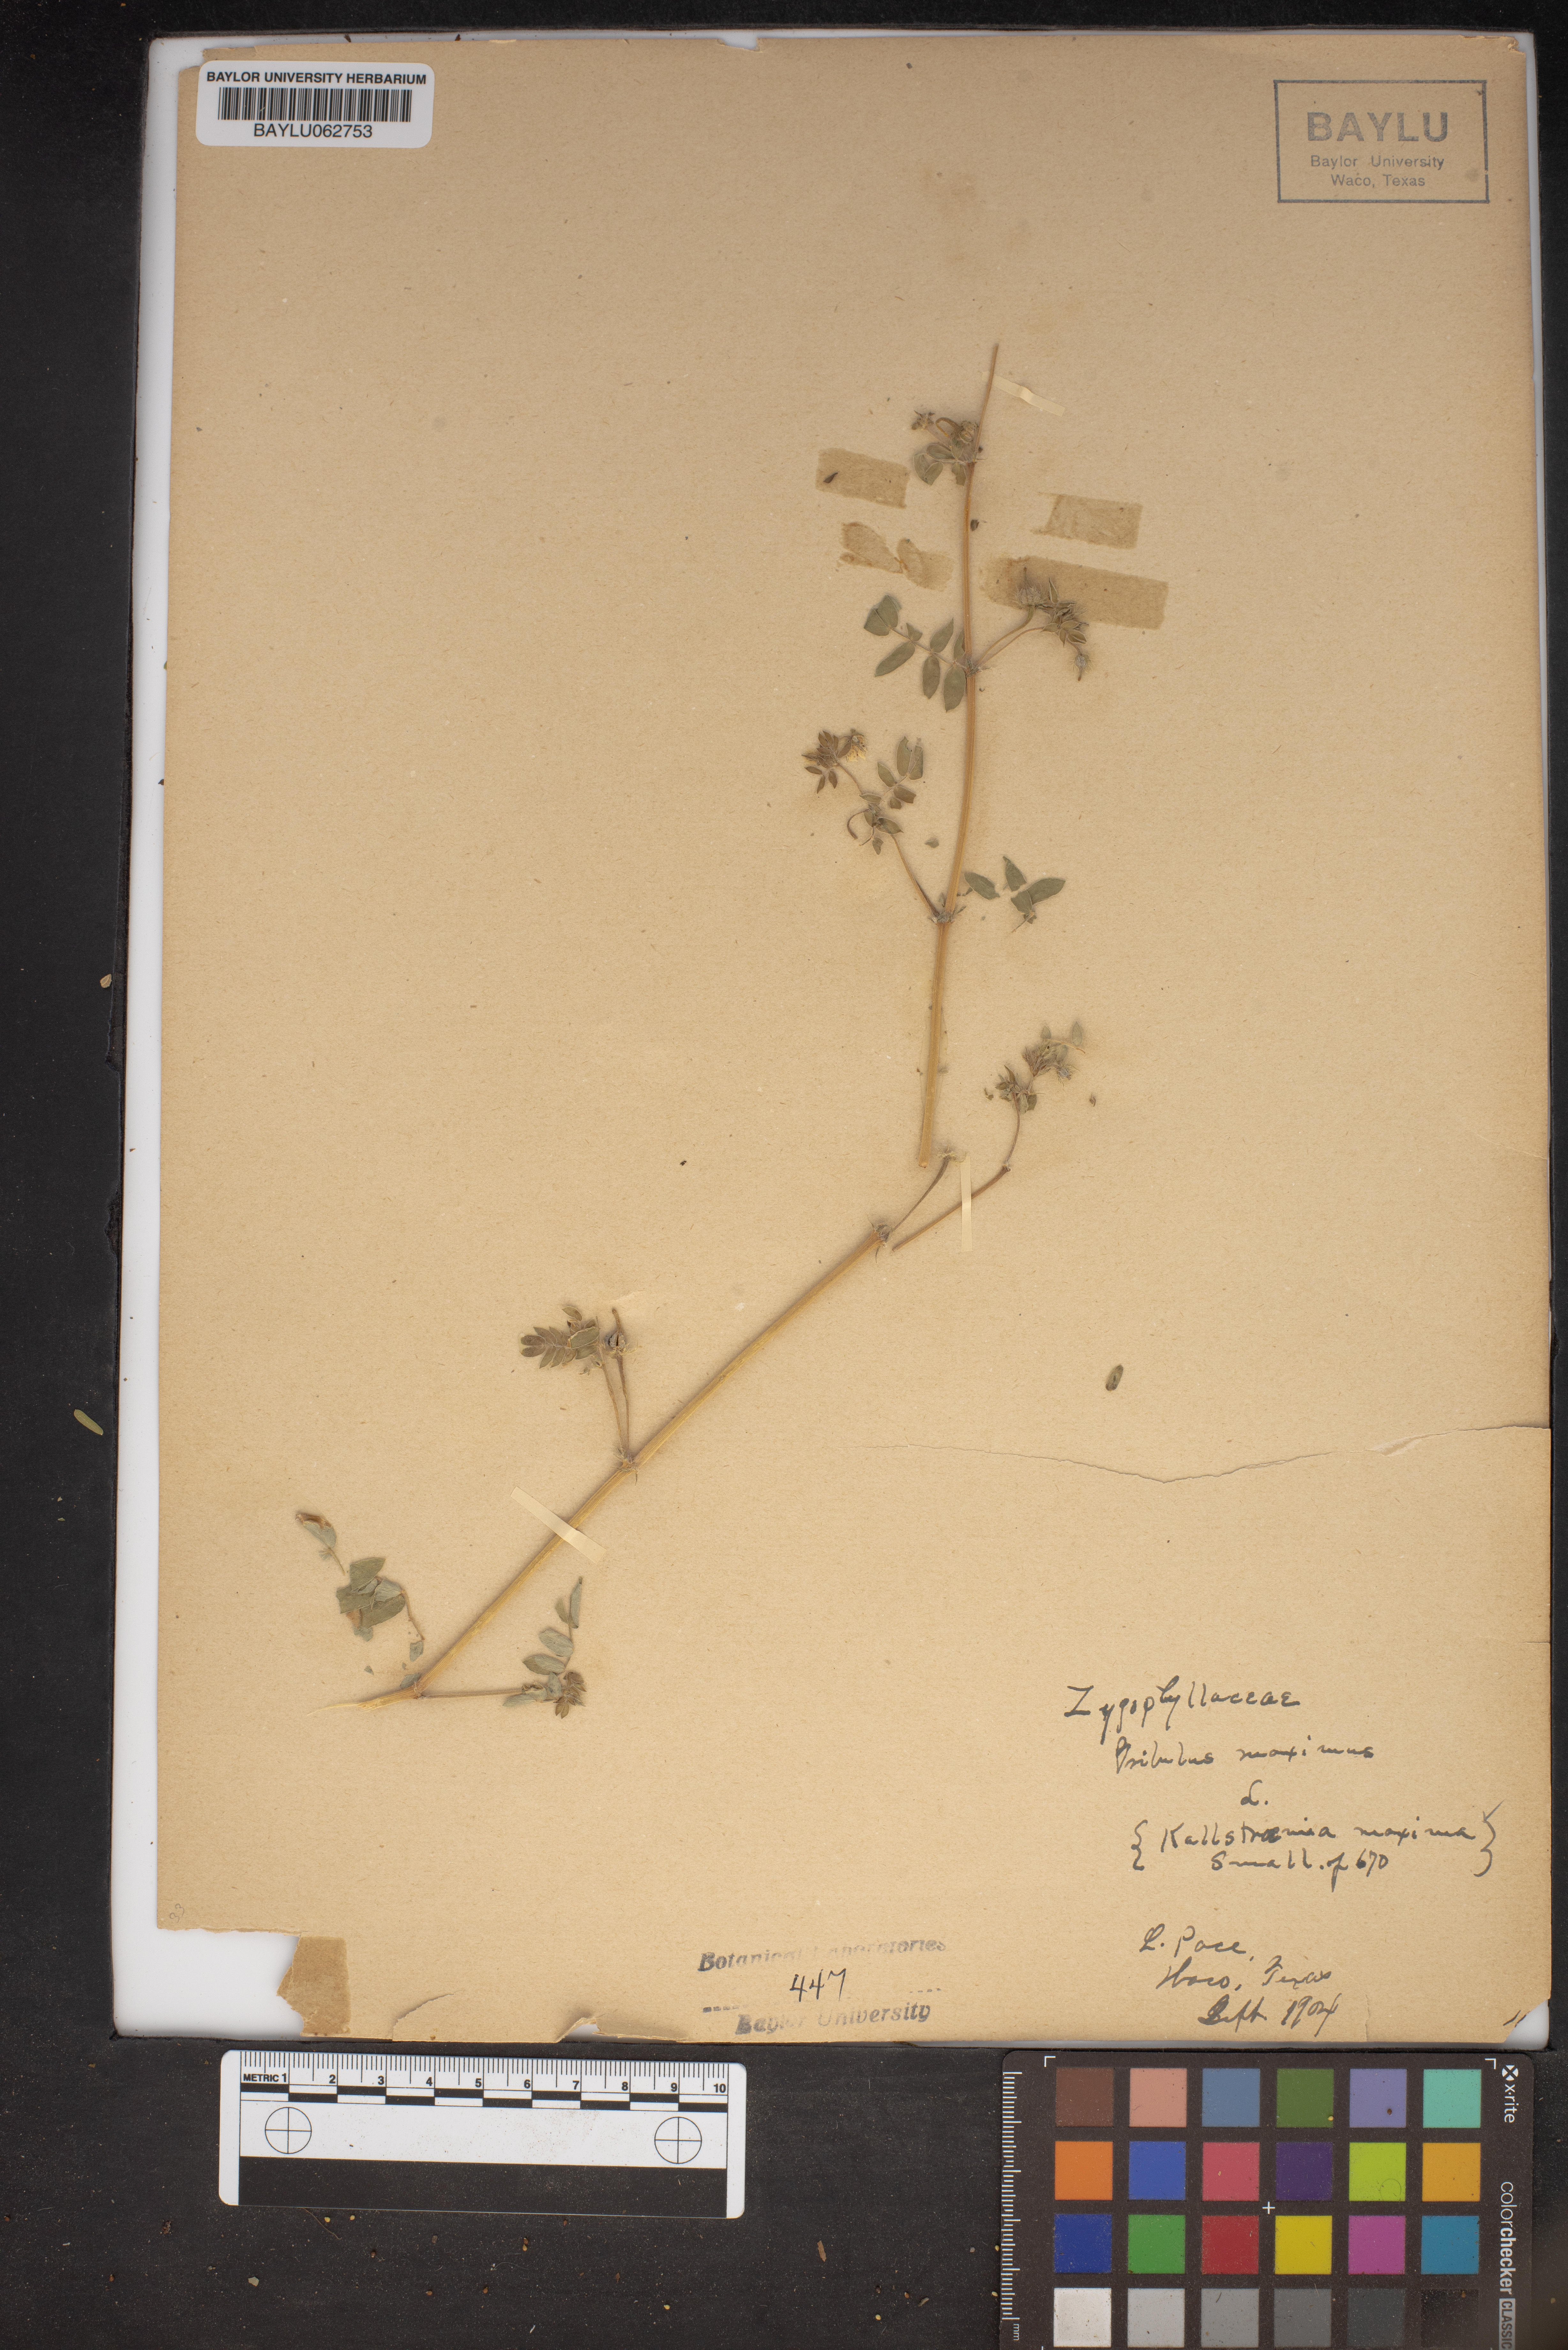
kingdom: Plantae
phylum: Tracheophyta
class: Magnoliopsida
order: Zygophyllales
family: Zygophyllaceae
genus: Kallstroemia
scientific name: Kallstroemia maxima
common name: Big caltropa
